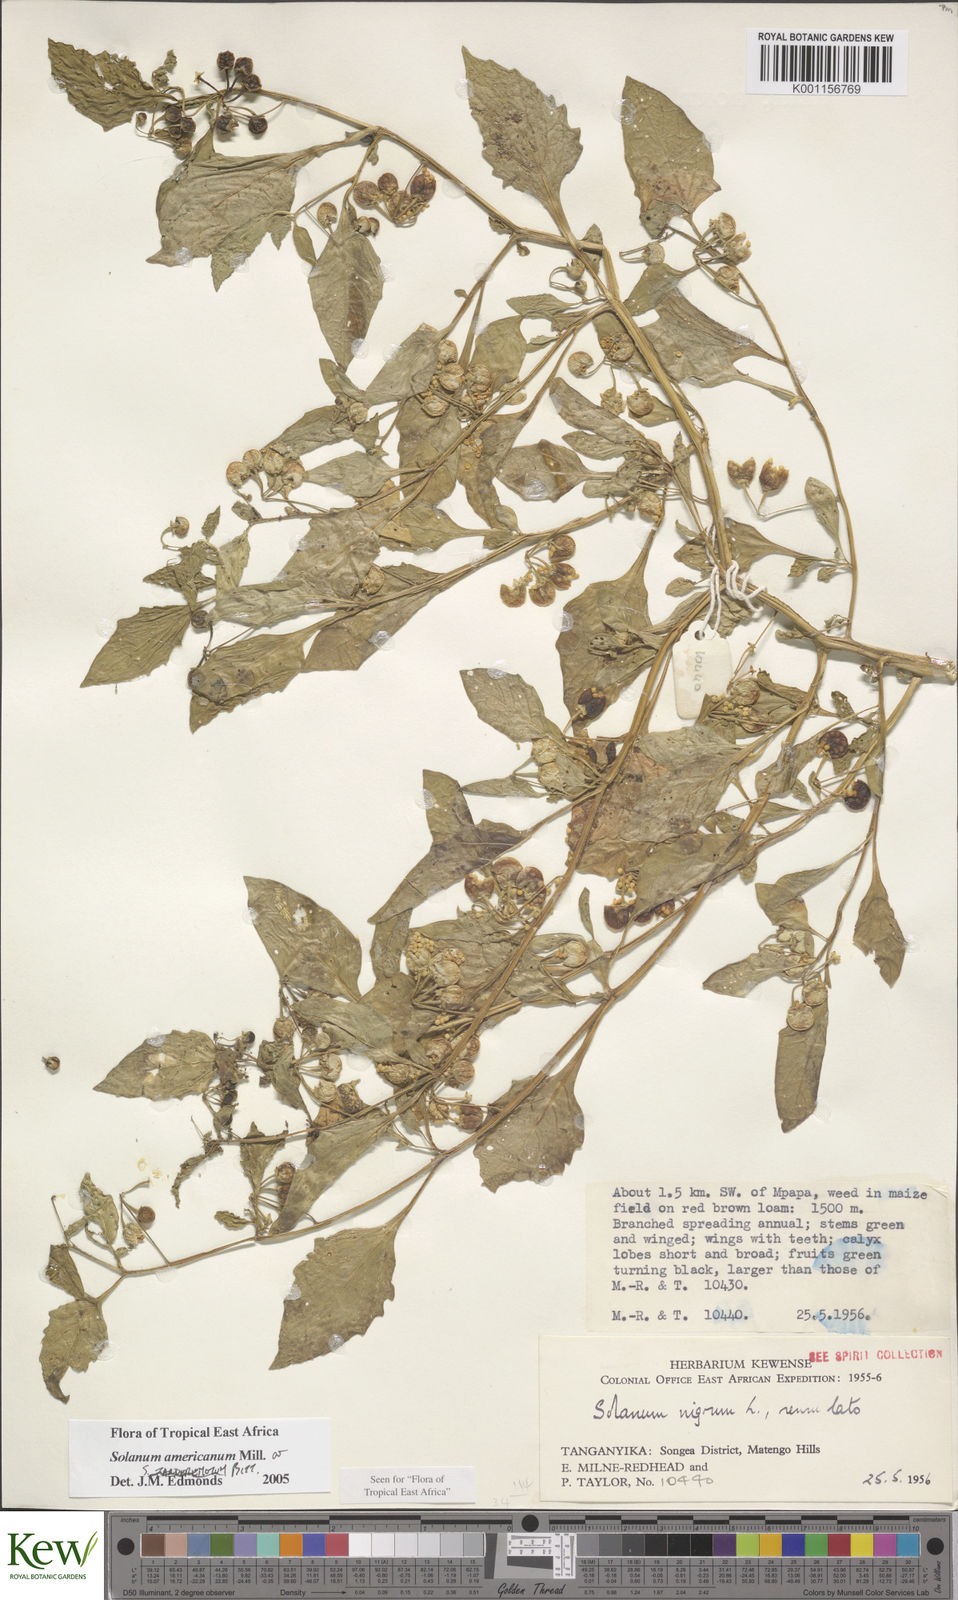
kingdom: Plantae
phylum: Tracheophyta
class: Magnoliopsida
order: Solanales
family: Solanaceae
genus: Solanum
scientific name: Solanum americanum
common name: American black nightshade
